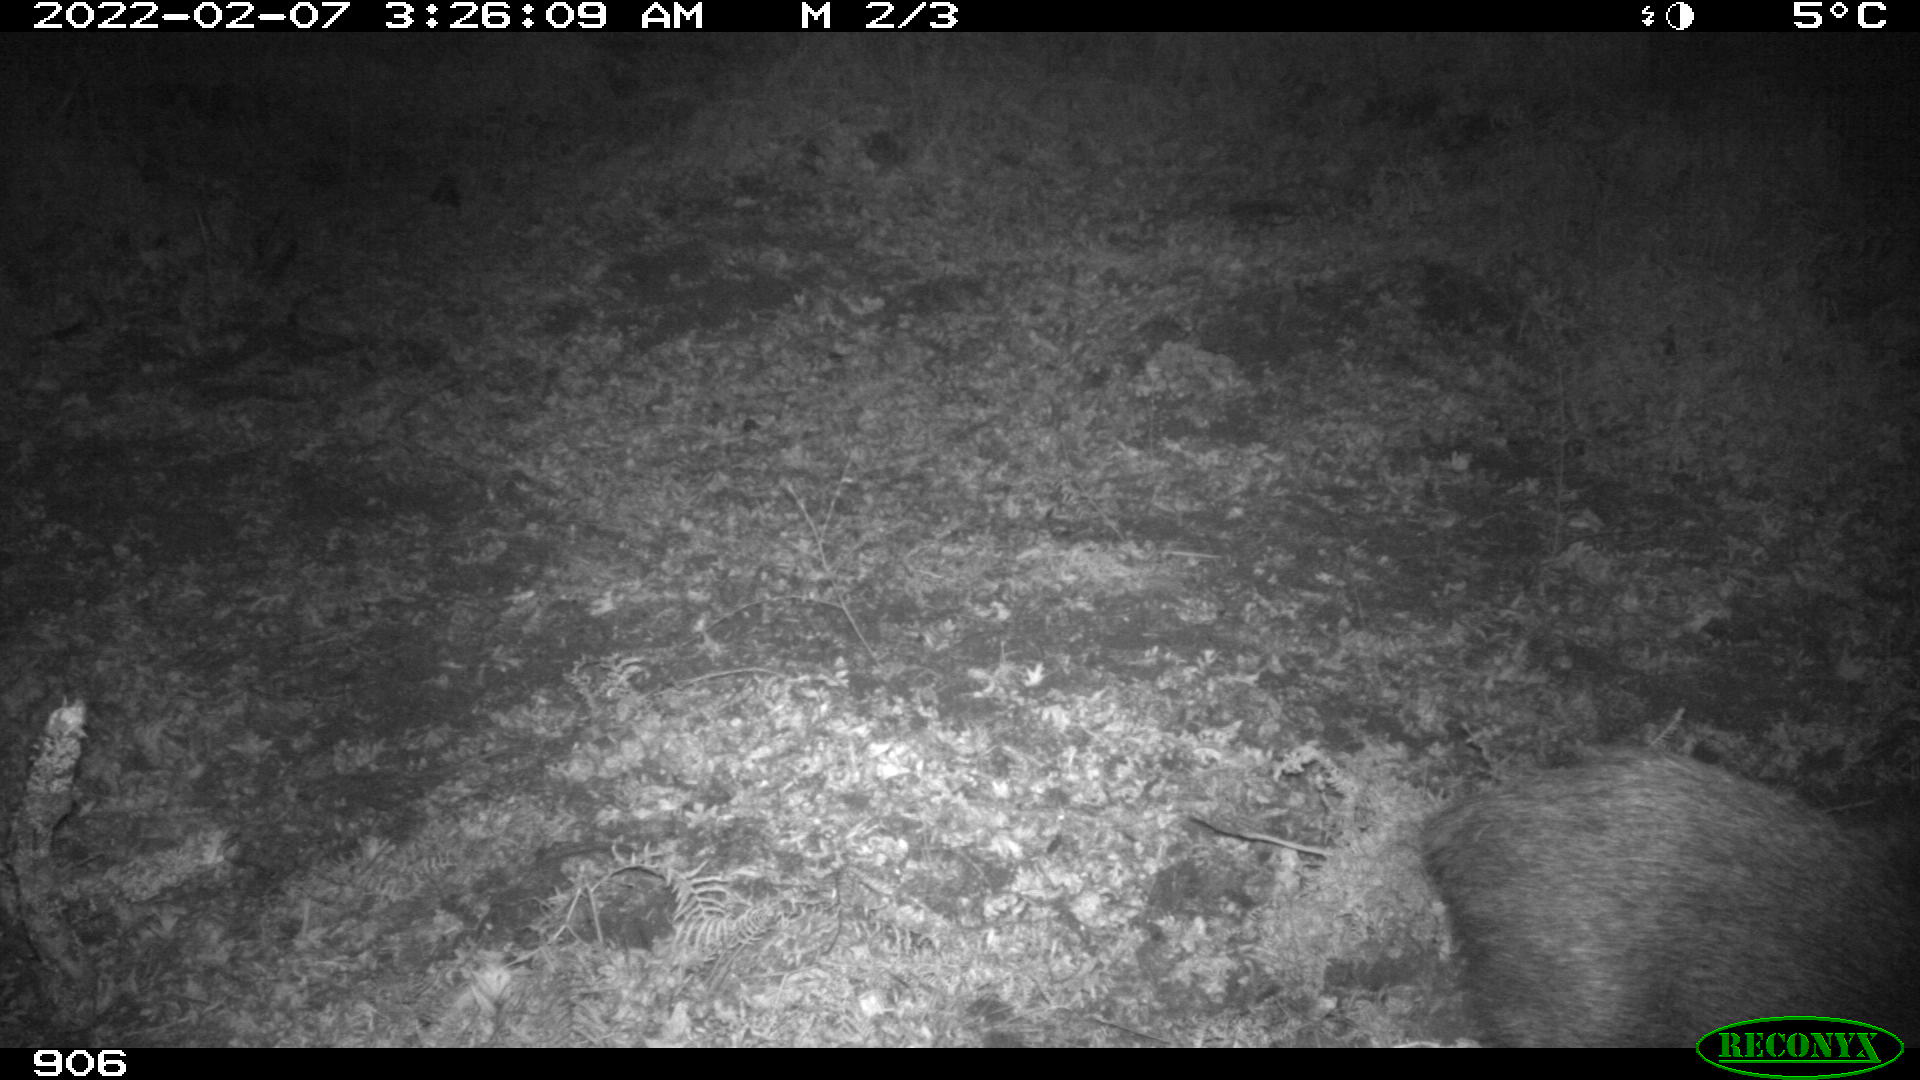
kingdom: Animalia
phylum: Chordata
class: Mammalia
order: Artiodactyla
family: Suidae
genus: Sus
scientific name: Sus scrofa
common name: Wild boar
